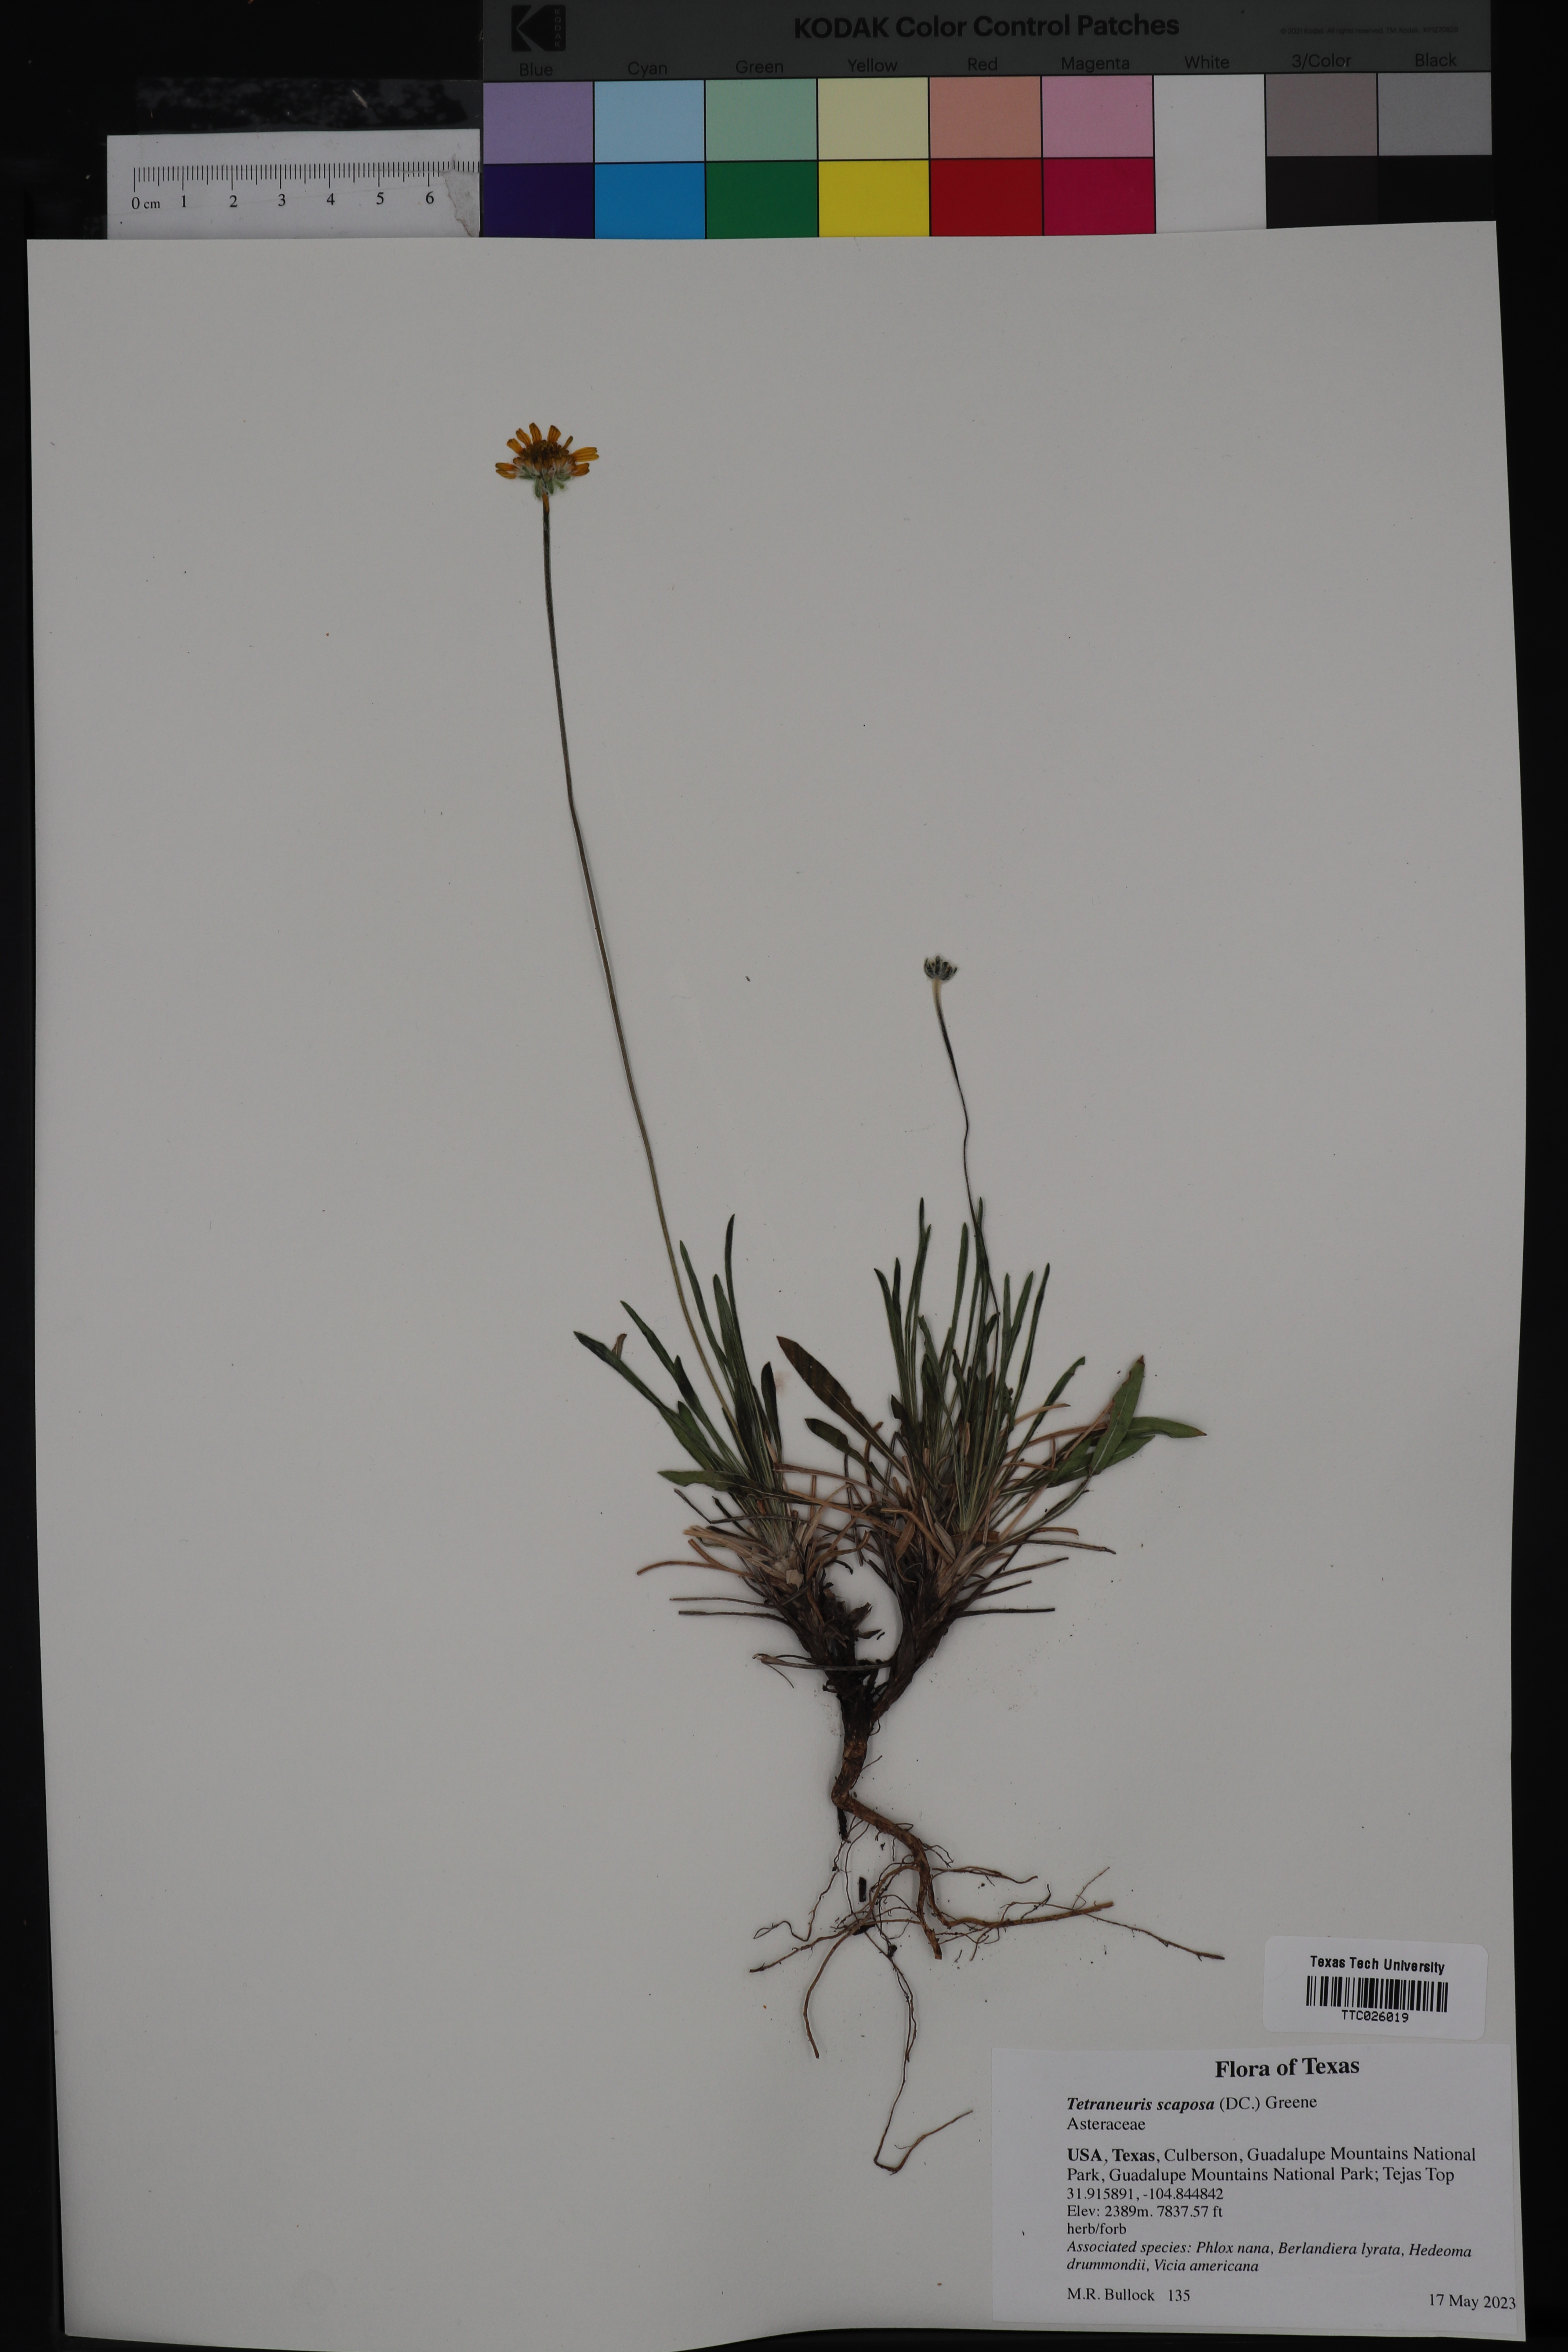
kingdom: Plantae
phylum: Tracheophyta
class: Magnoliopsida
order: Asterales
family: Asteraceae
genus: Tetraneuris
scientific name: Tetraneuris scaposa
